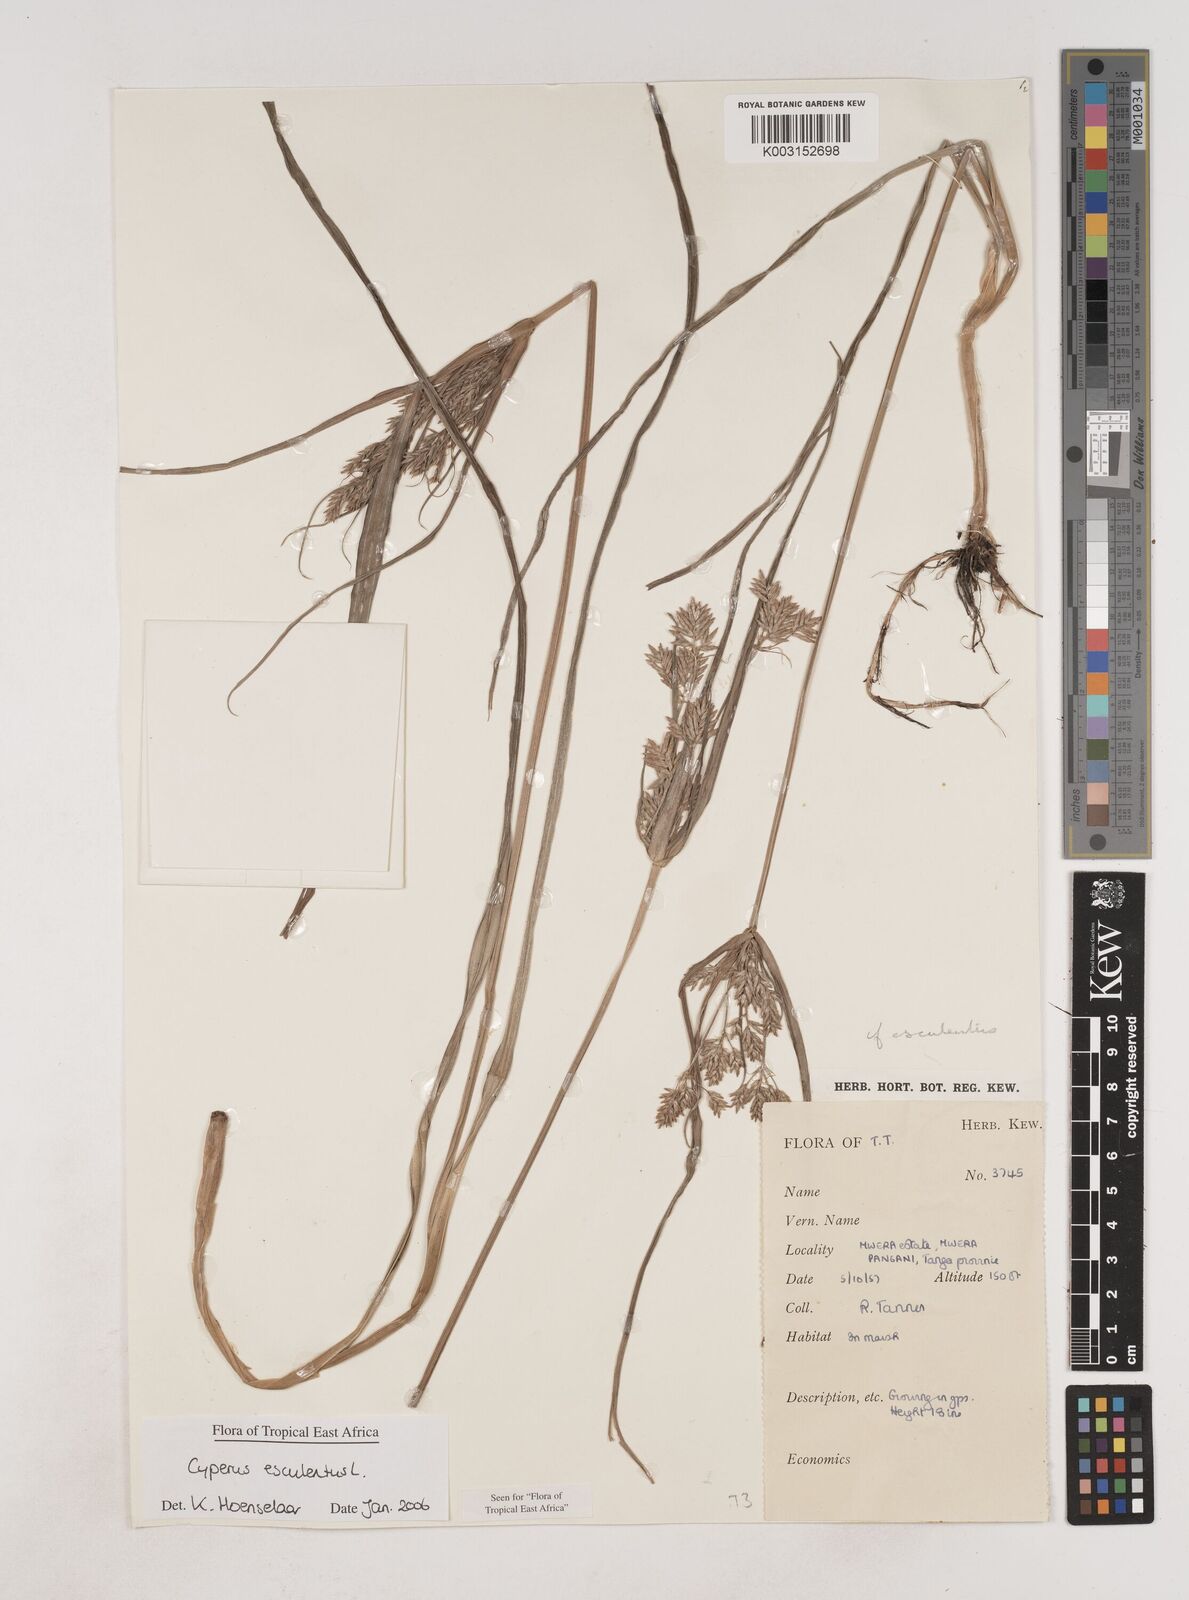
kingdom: Plantae
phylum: Tracheophyta
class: Liliopsida
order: Poales
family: Cyperaceae
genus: Cyperus
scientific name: Cyperus esculentus
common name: Yellow nutsedge
